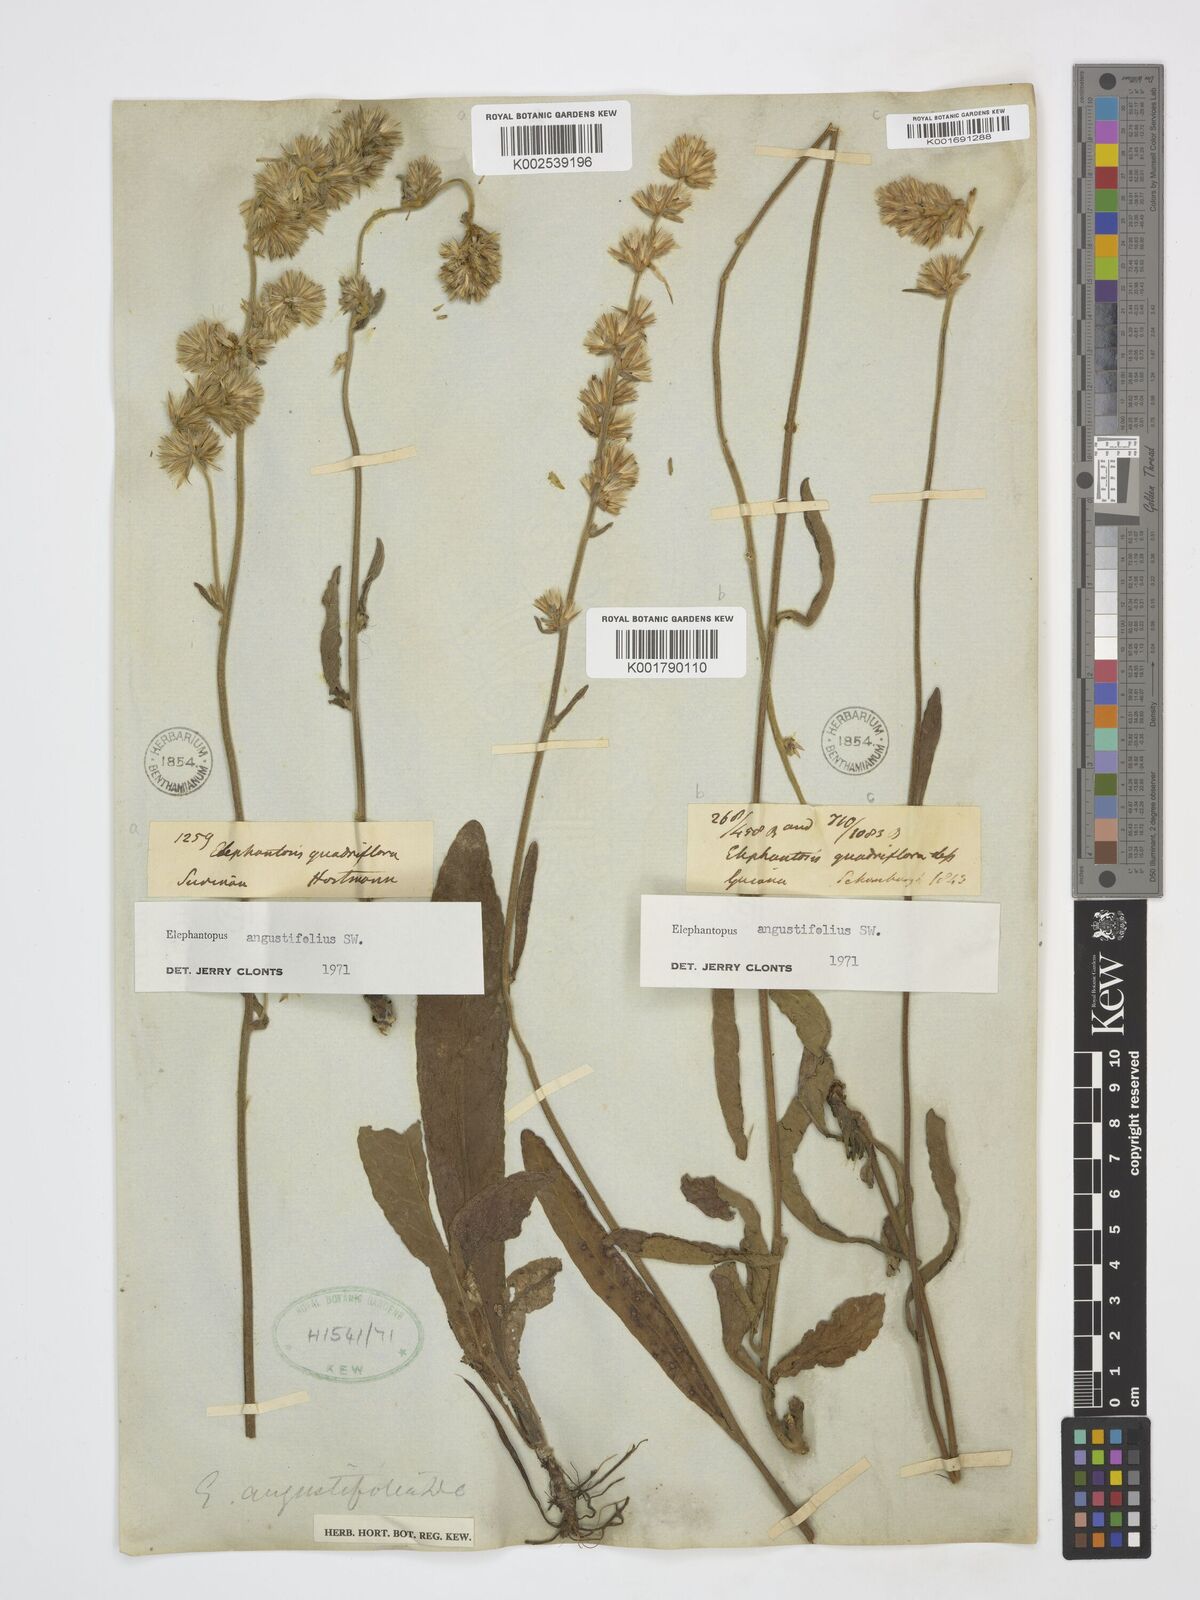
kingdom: Plantae
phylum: Tracheophyta
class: Magnoliopsida
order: Asterales
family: Asteraceae
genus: Orthopappus
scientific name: Orthopappus angustifolius
